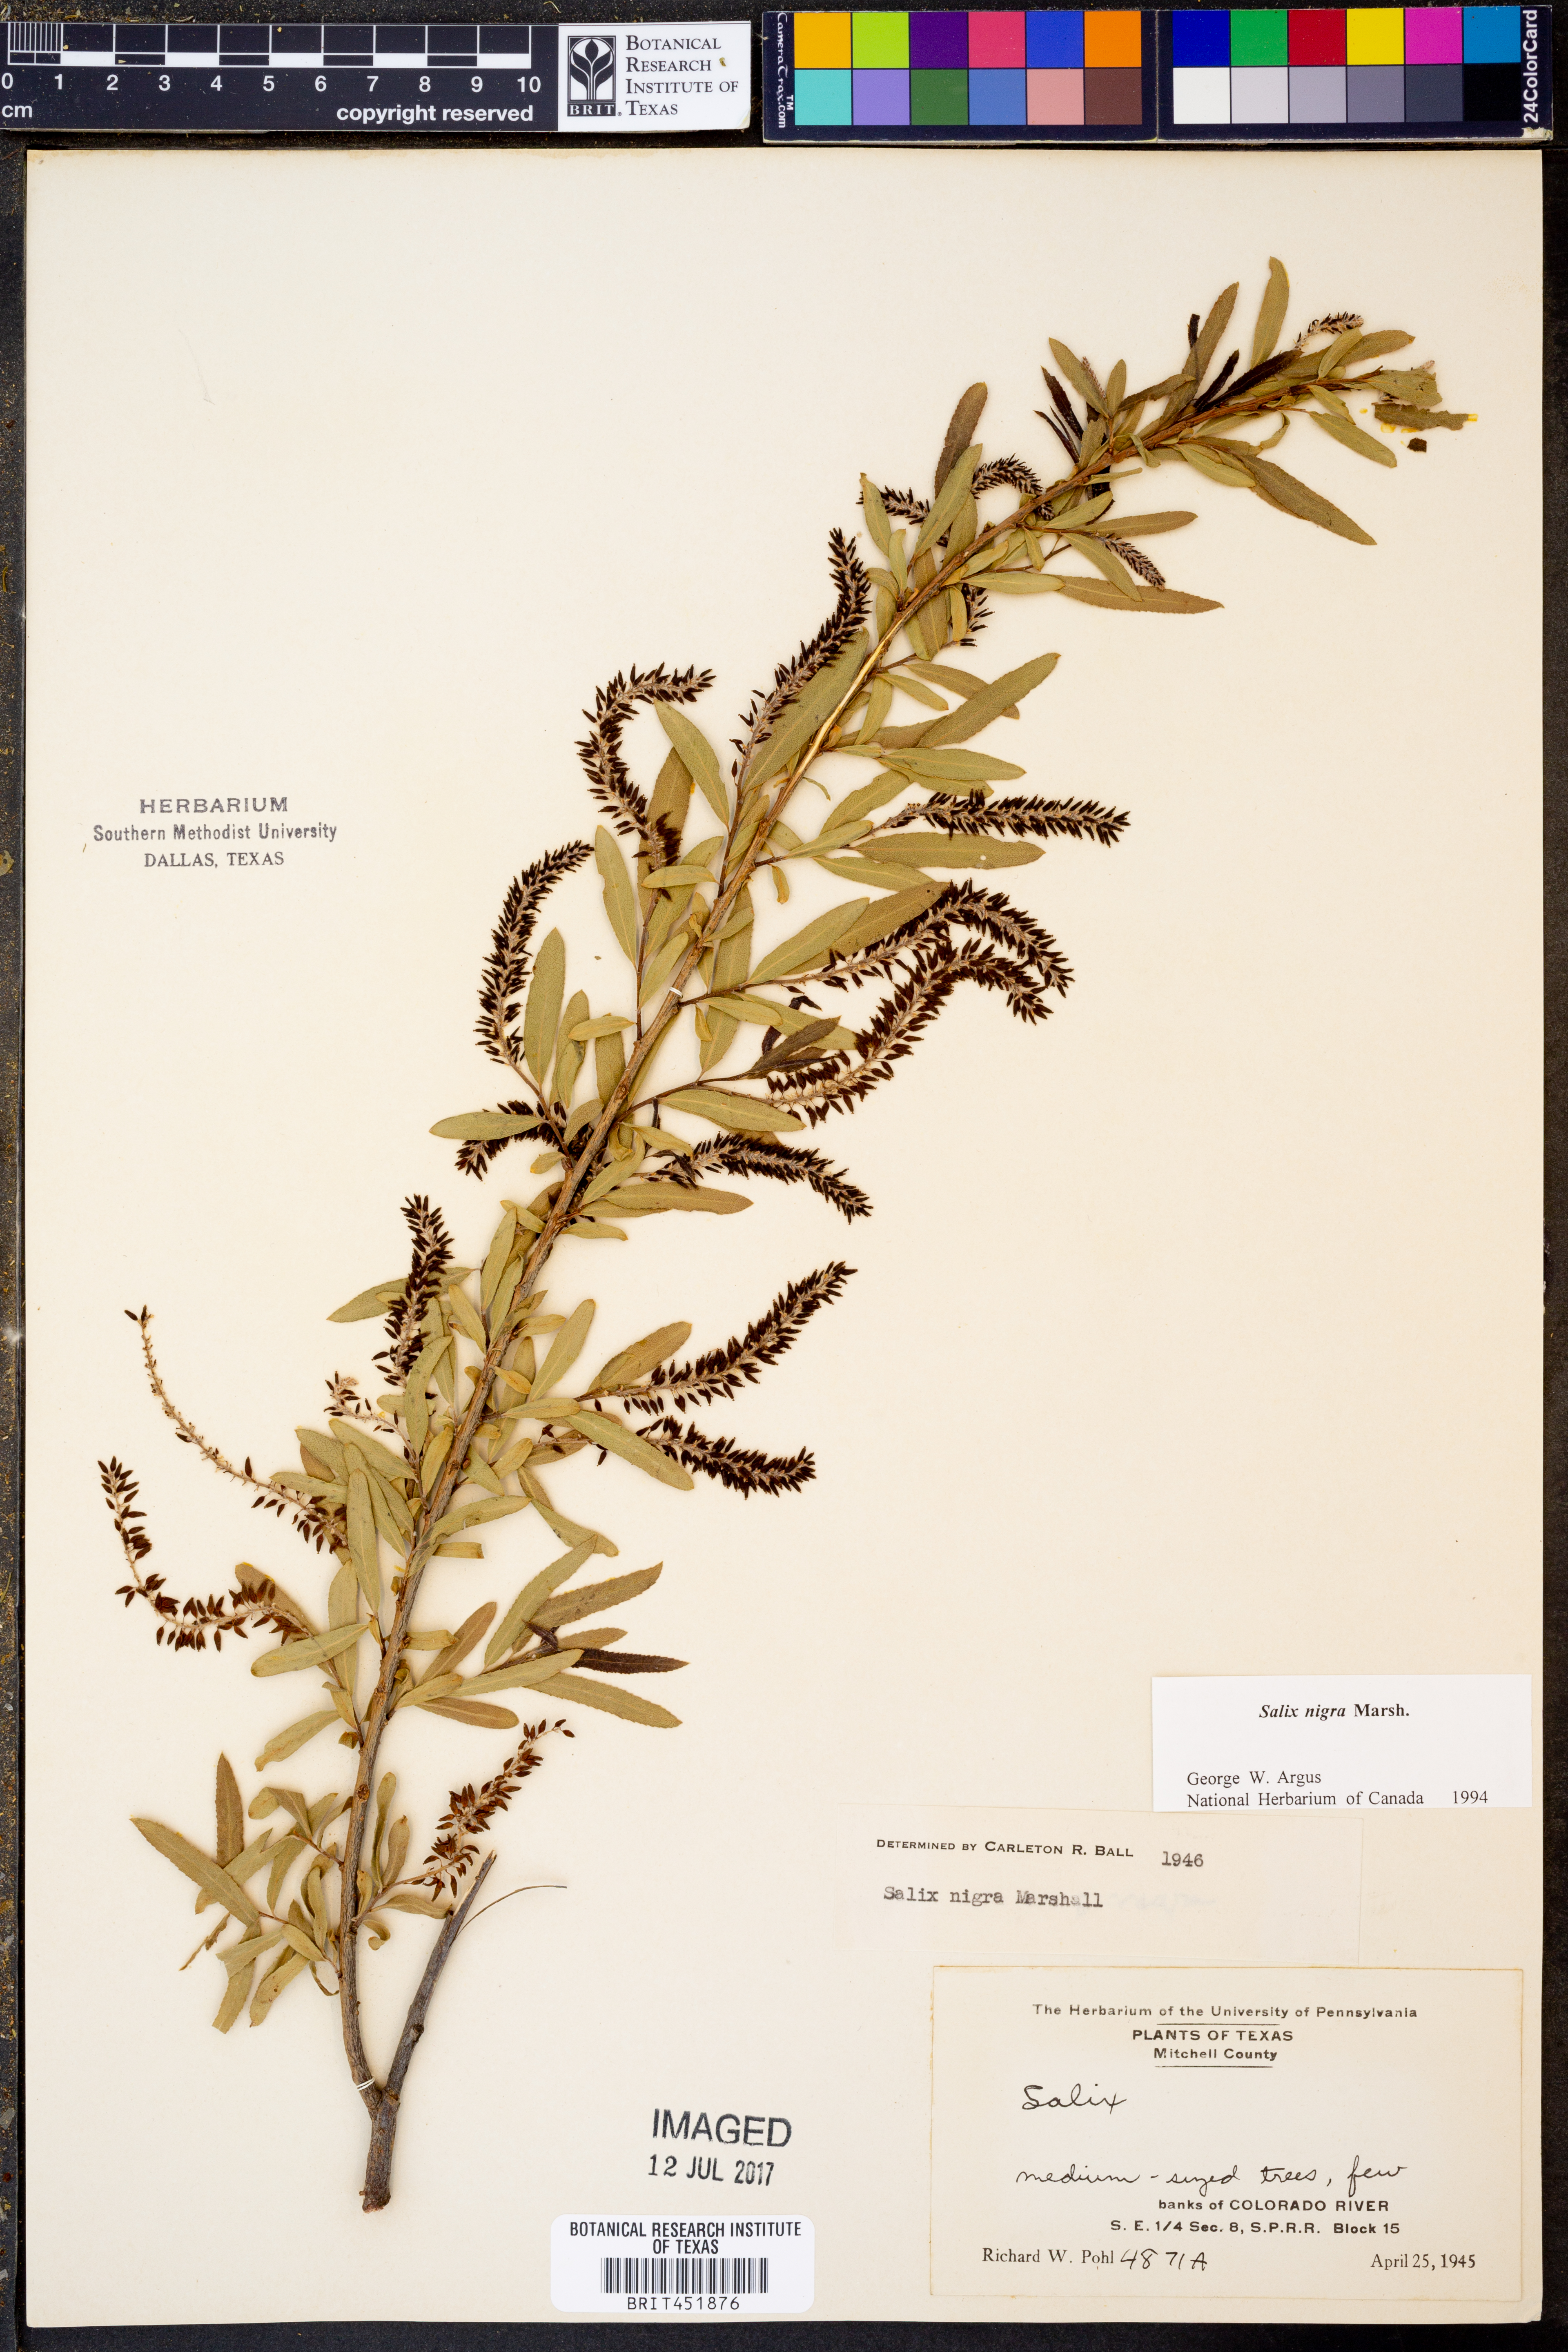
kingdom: Plantae
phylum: Tracheophyta
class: Magnoliopsida
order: Malpighiales
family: Salicaceae
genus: Salix
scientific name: Salix nigra
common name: Black willow
